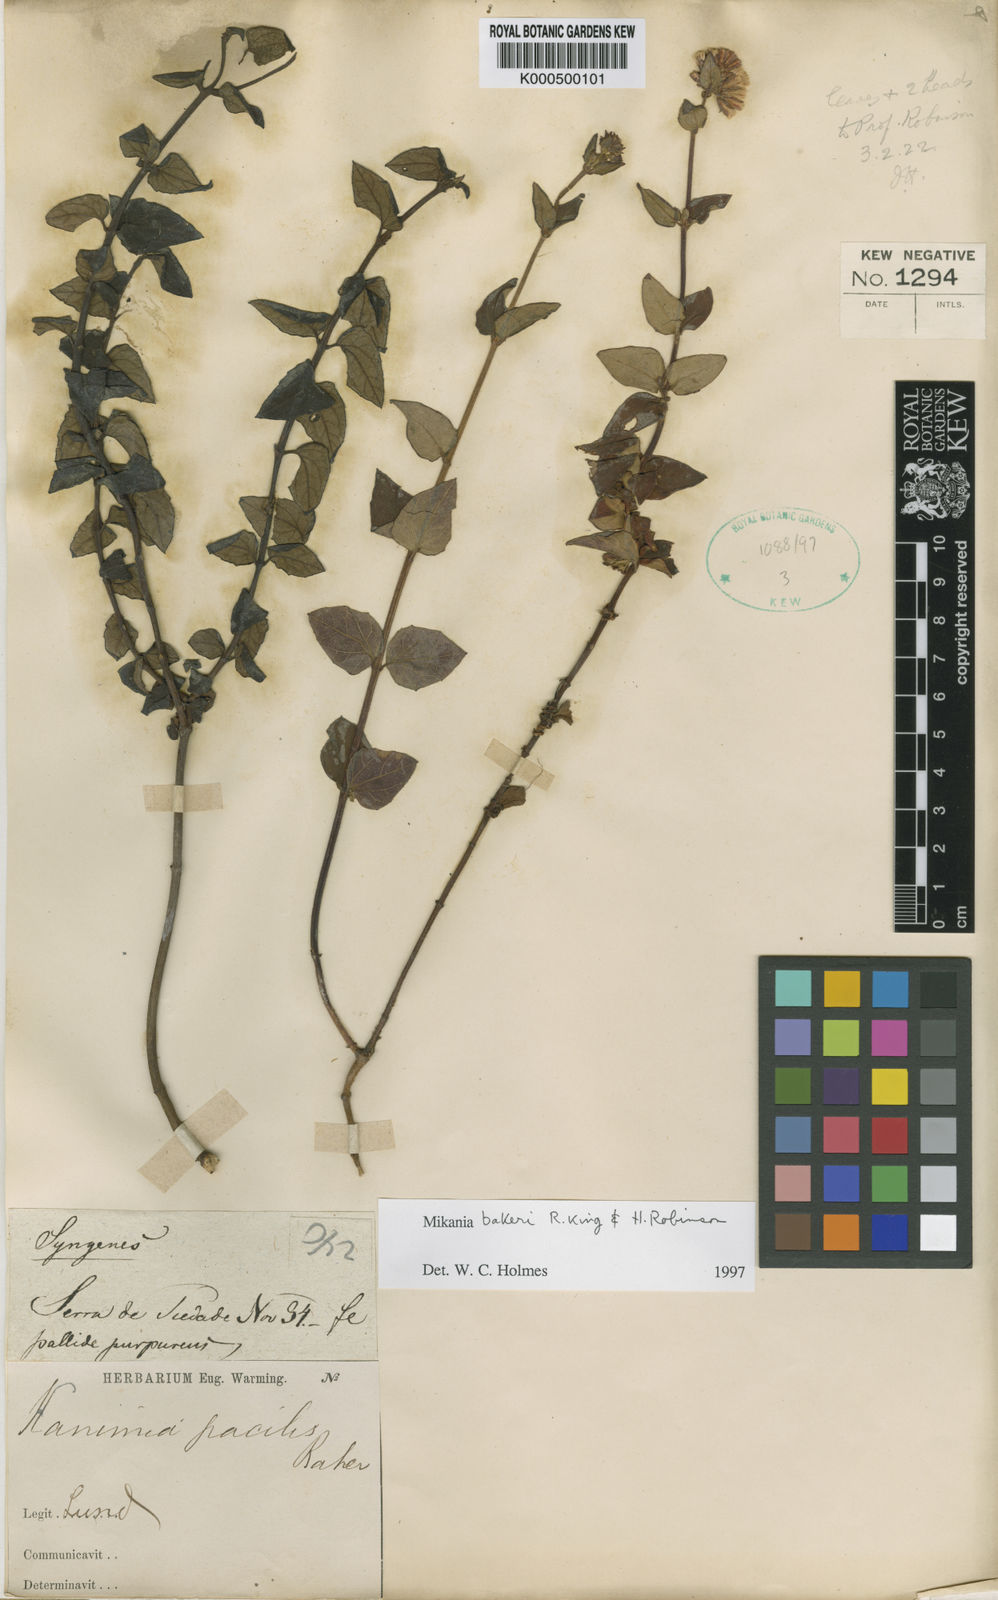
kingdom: Plantae
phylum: Tracheophyta
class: Magnoliopsida
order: Asterales
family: Asteraceae
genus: Mikania
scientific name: Mikania bakeri
